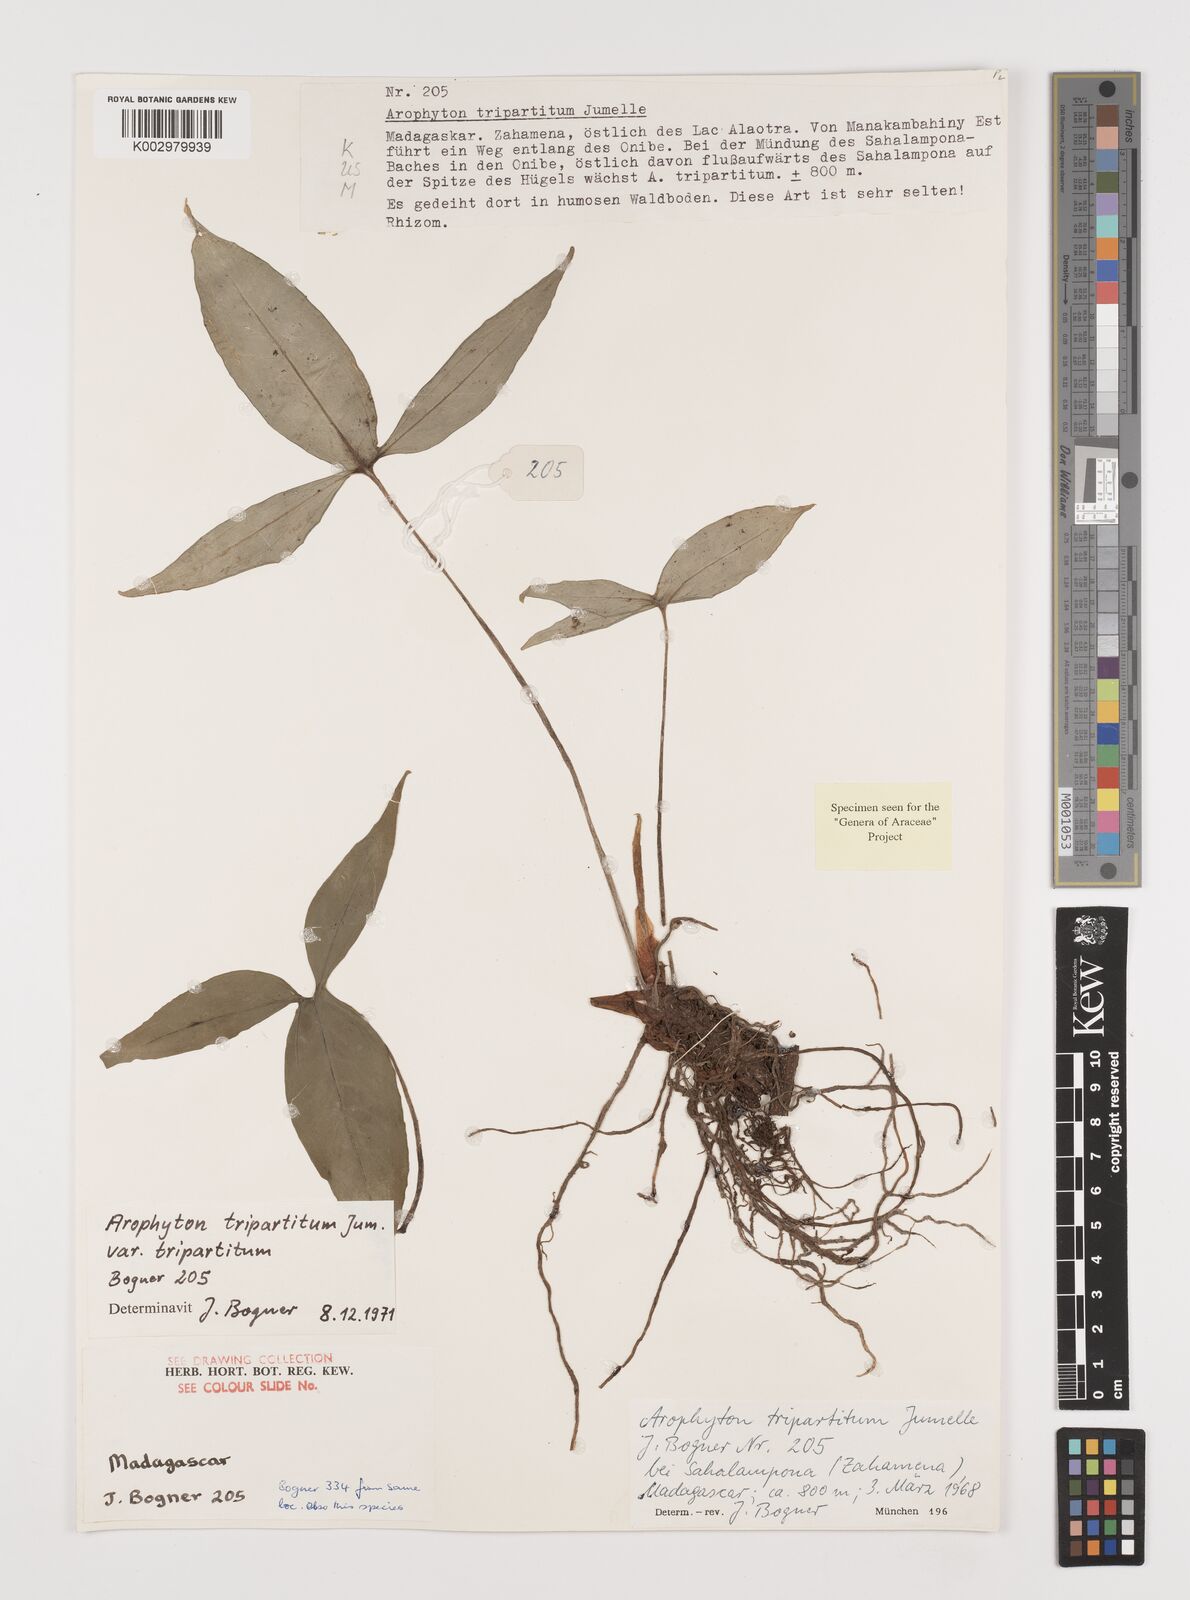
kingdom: Plantae
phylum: Tracheophyta
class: Liliopsida
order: Alismatales
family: Araceae
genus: Arophyton
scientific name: Arophyton tripartitum
